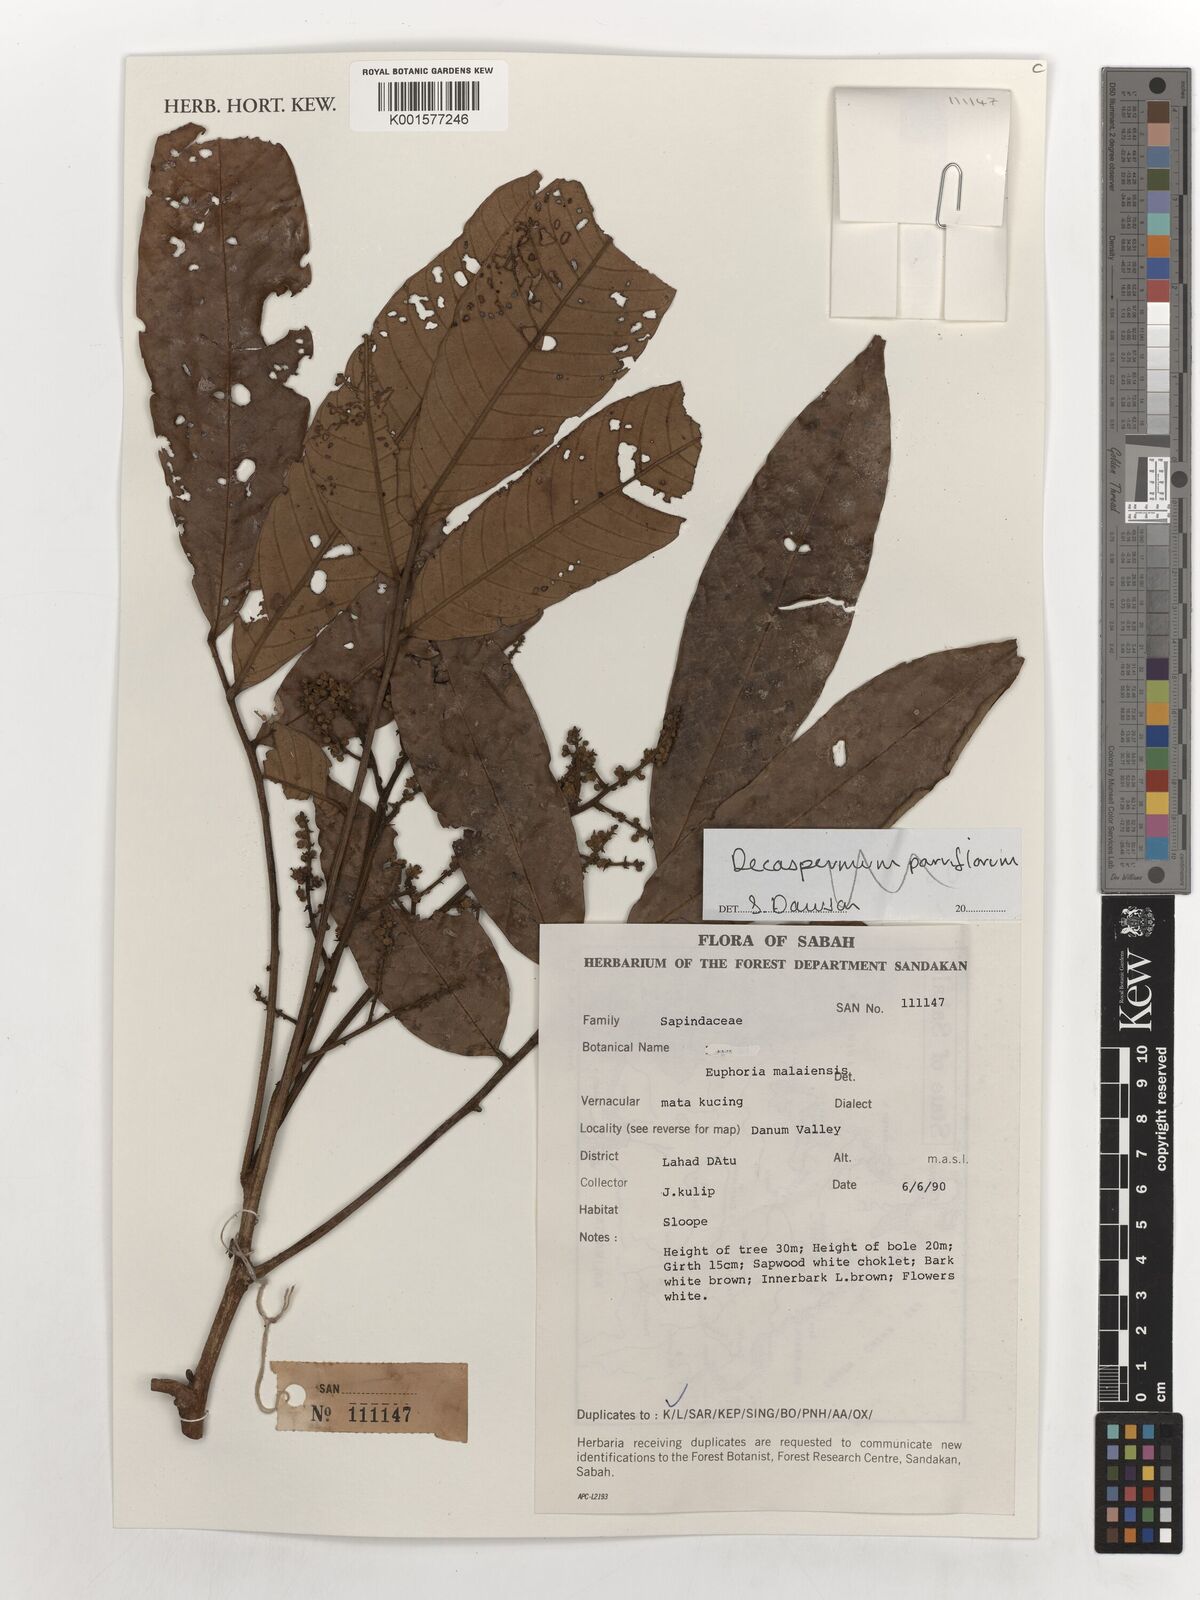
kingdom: Plantae
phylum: Tracheophyta
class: Magnoliopsida
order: Sapindales
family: Sapindaceae
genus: Dimocarpus
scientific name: Dimocarpus malesianus
